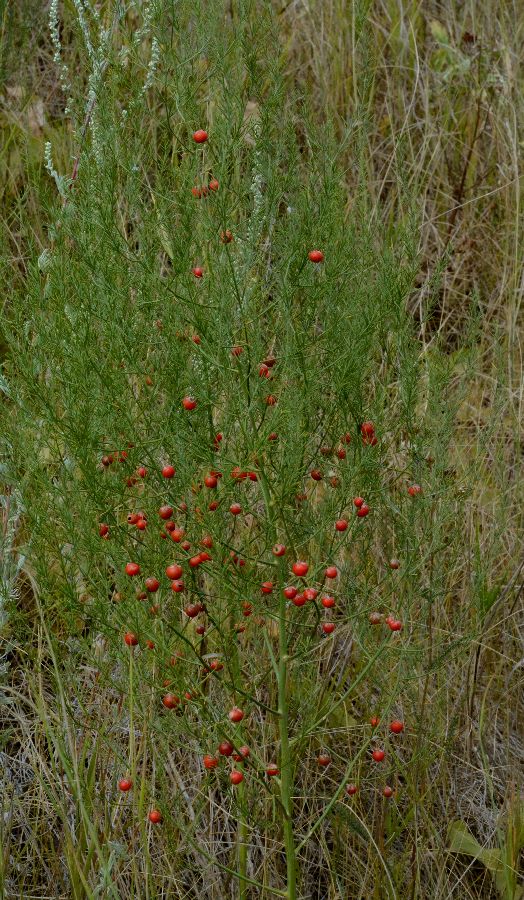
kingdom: Plantae
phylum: Tracheophyta
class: Liliopsida
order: Asparagales
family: Asparagaceae
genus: Asparagus
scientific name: Asparagus officinalis
